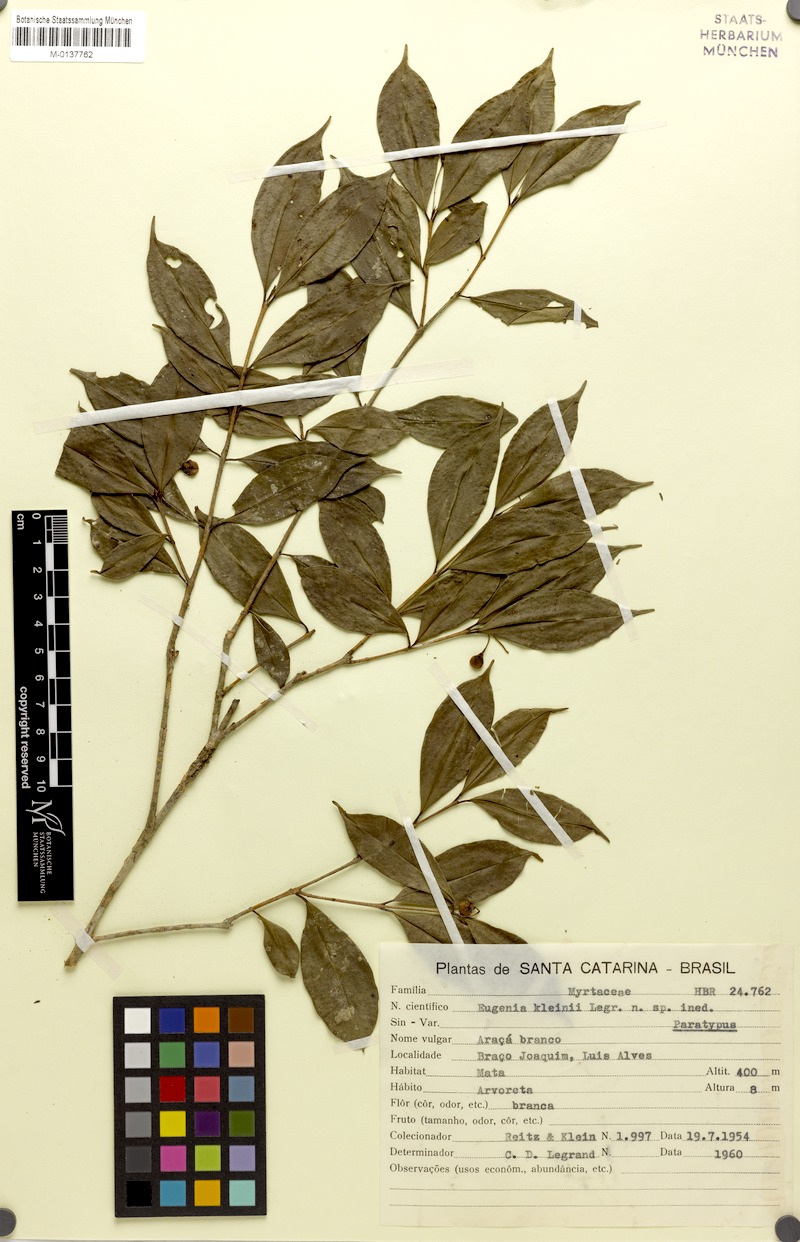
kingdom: Plantae
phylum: Tracheophyta
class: Magnoliopsida
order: Myrtales
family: Myrtaceae
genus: Eugenia
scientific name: Eugenia kleinii
